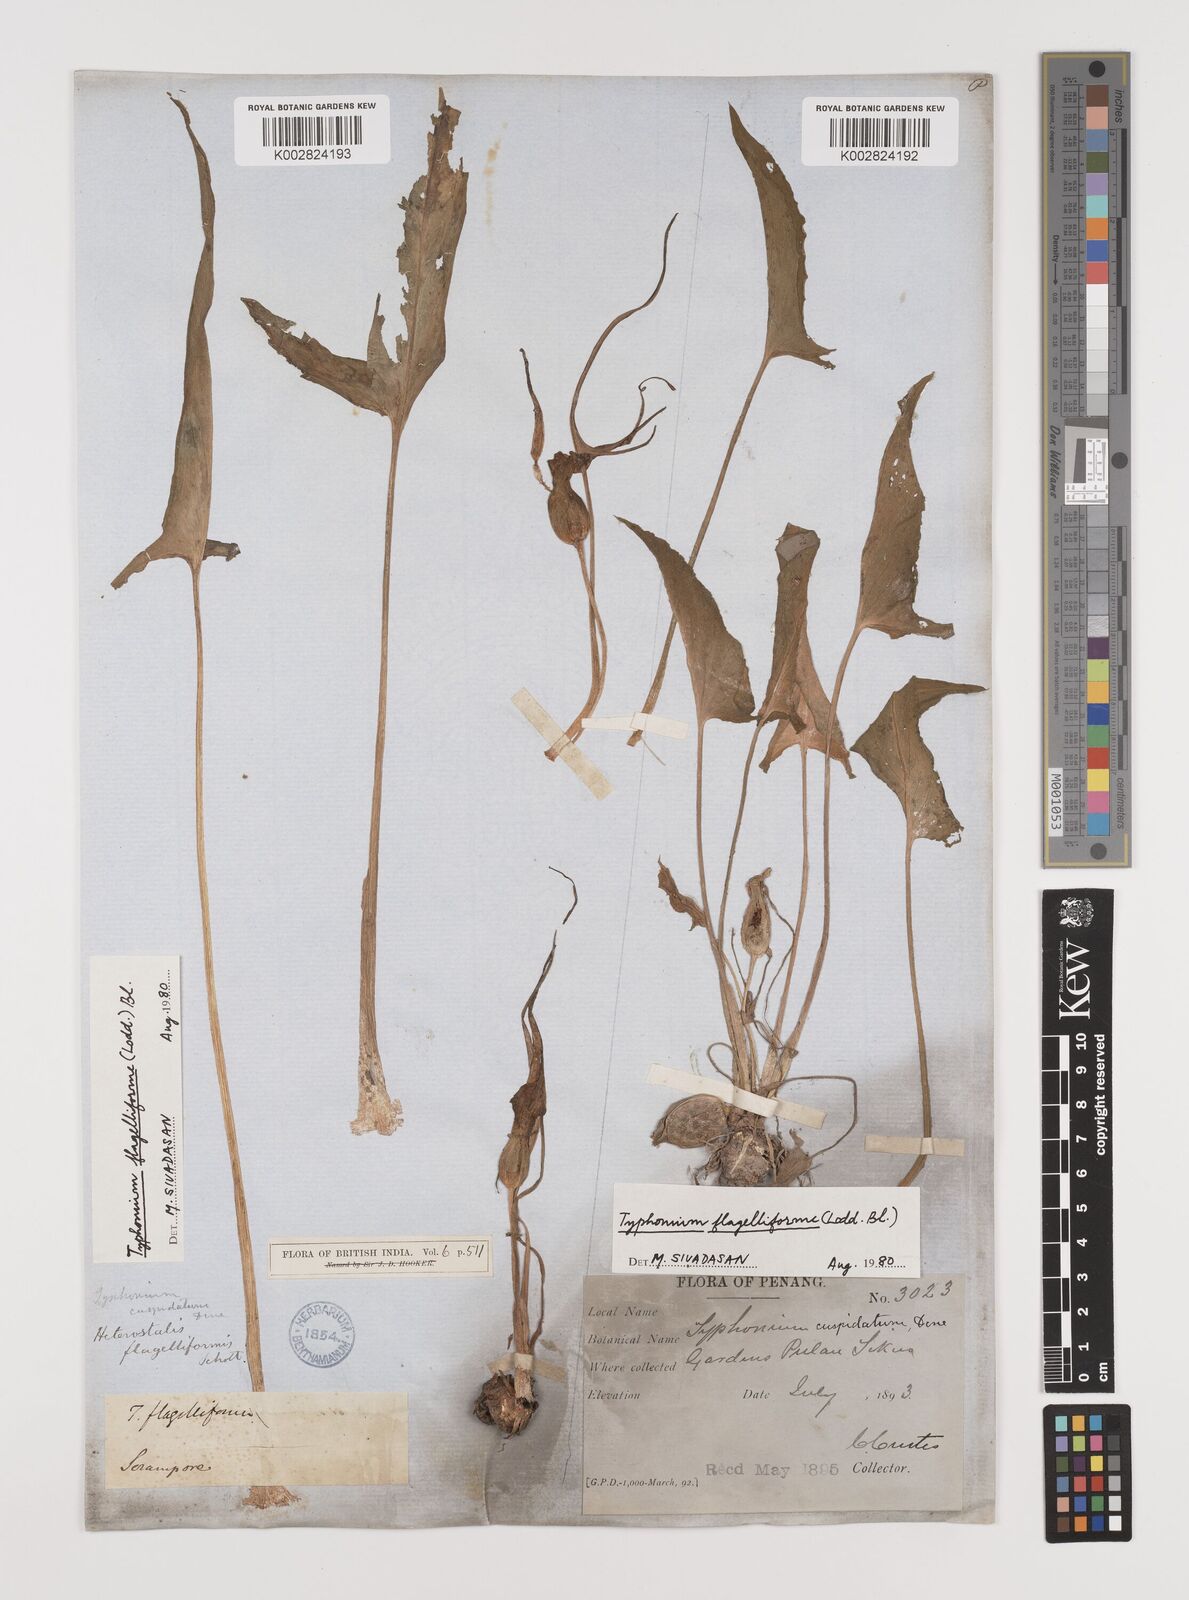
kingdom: Plantae
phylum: Tracheophyta
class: Liliopsida
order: Alismatales
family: Araceae
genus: Typhonium
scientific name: Typhonium flagelliforme
